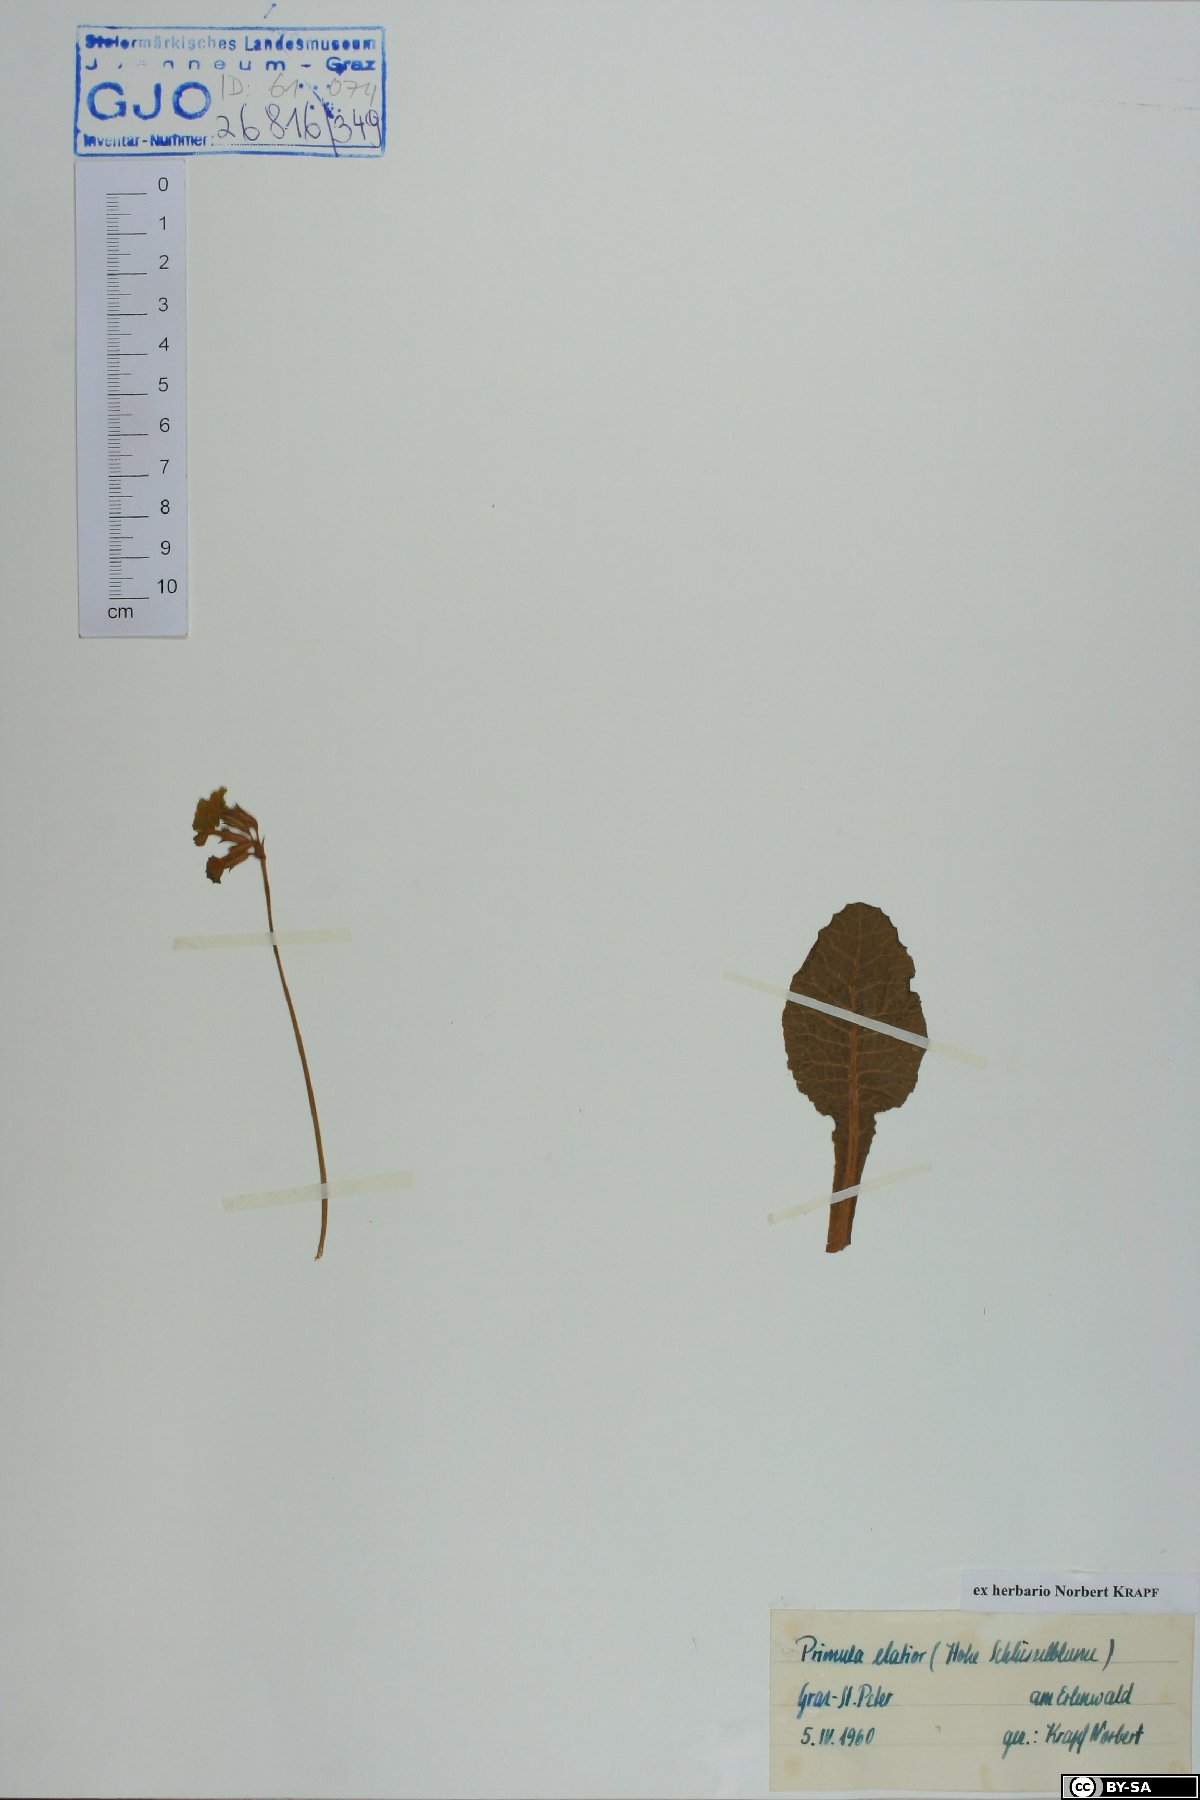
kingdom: Plantae
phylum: Tracheophyta
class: Magnoliopsida
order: Ericales
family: Primulaceae
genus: Primula
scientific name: Primula elatior
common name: Oxlip
